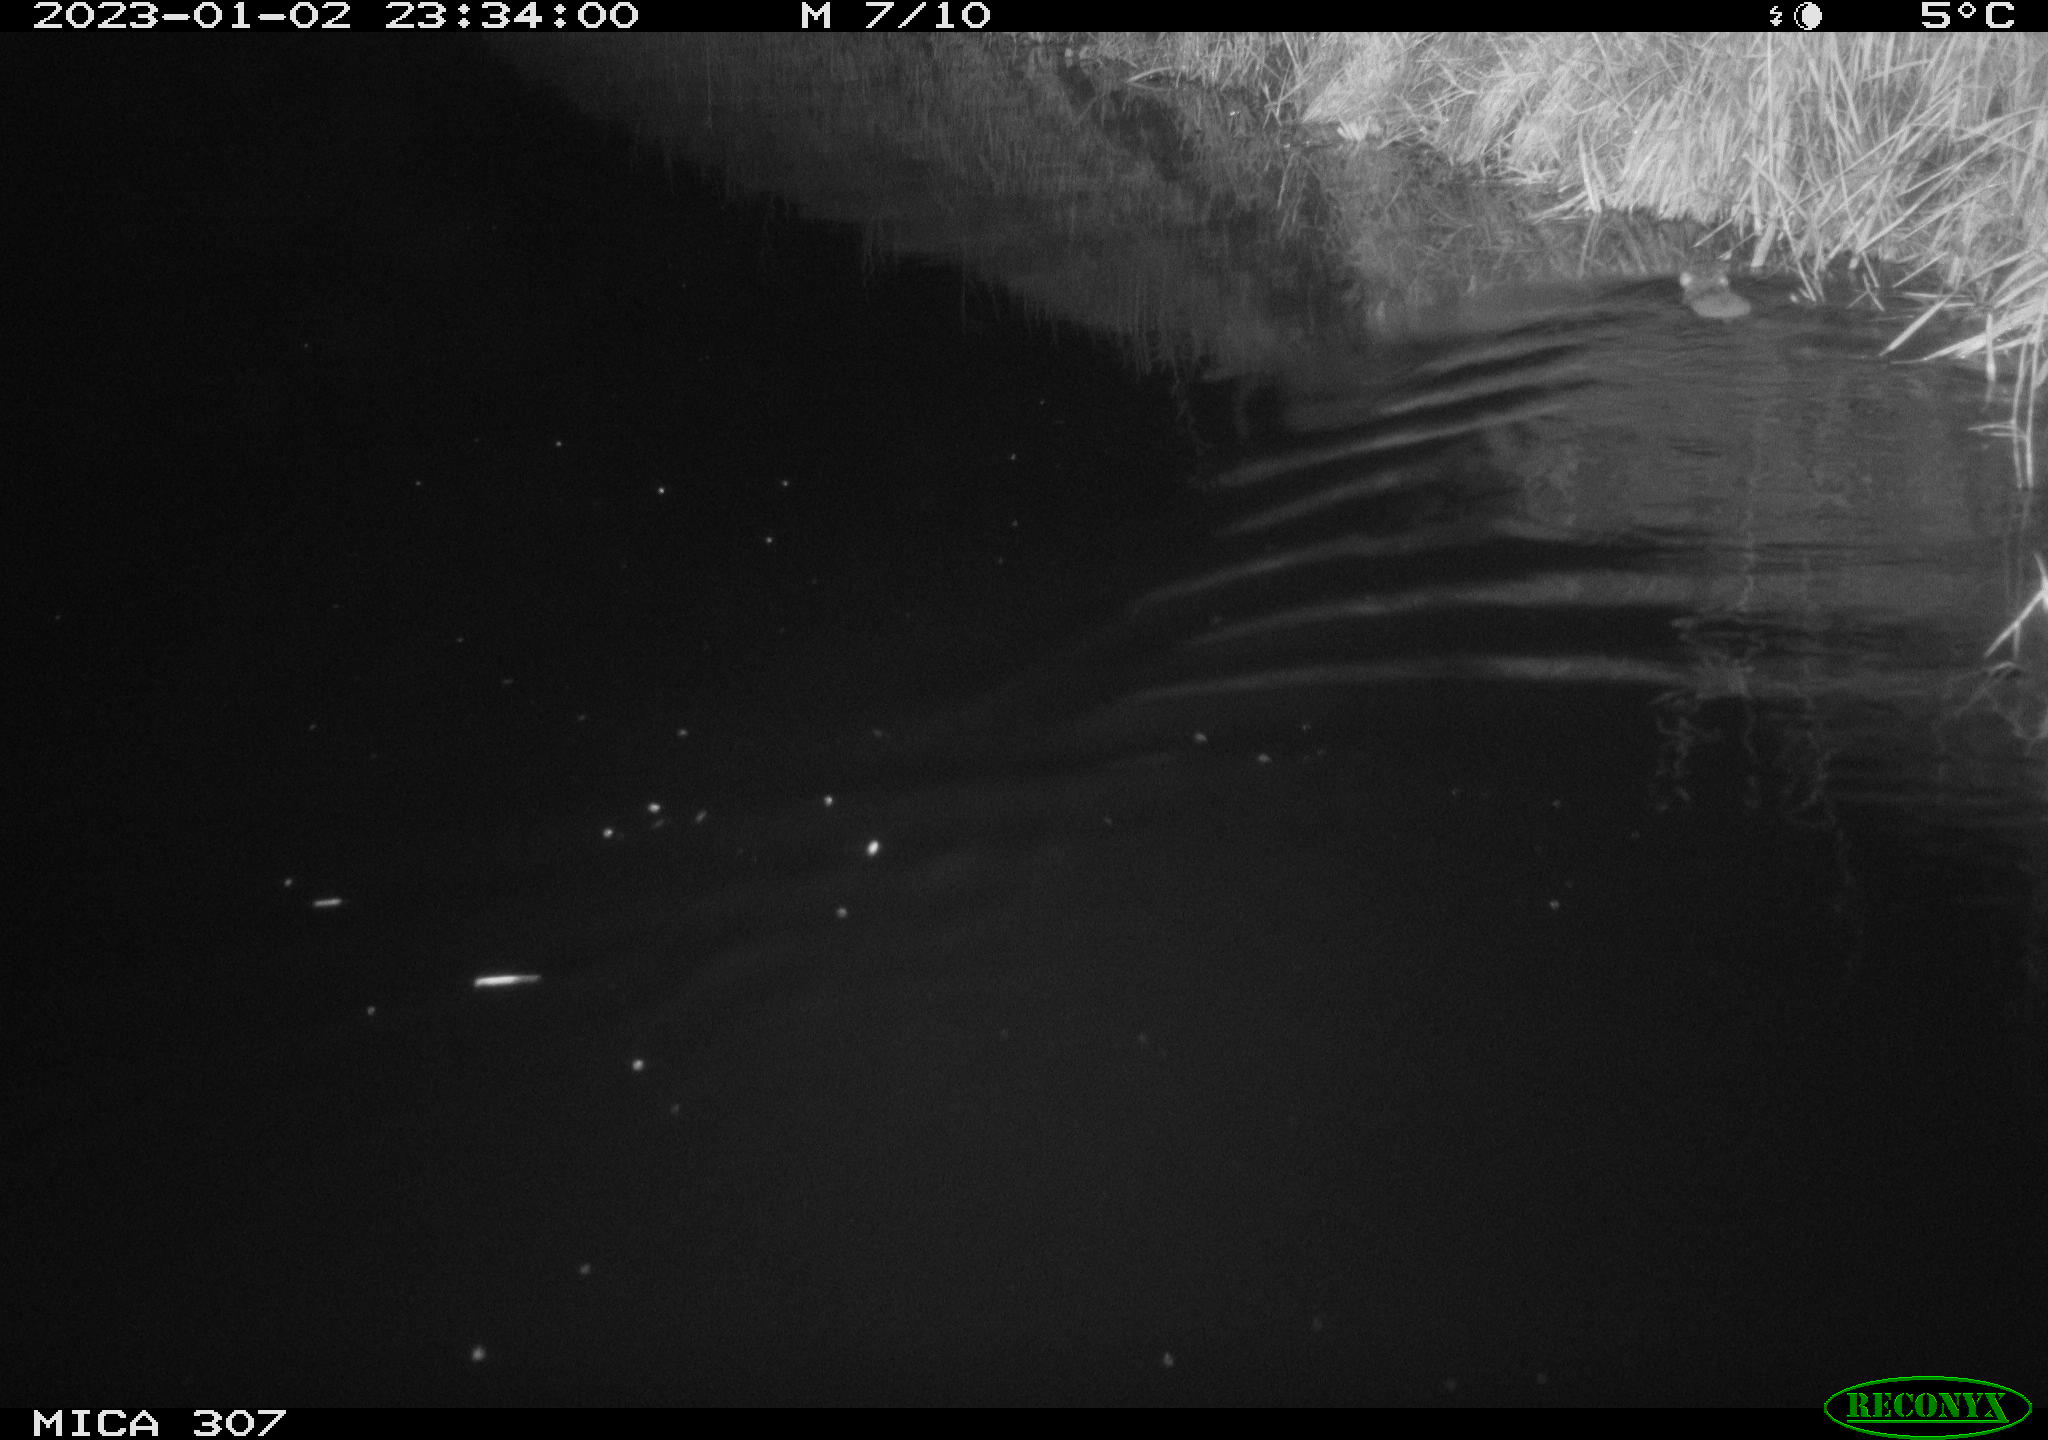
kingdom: Animalia
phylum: Chordata
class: Mammalia
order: Rodentia
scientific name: Rodentia
